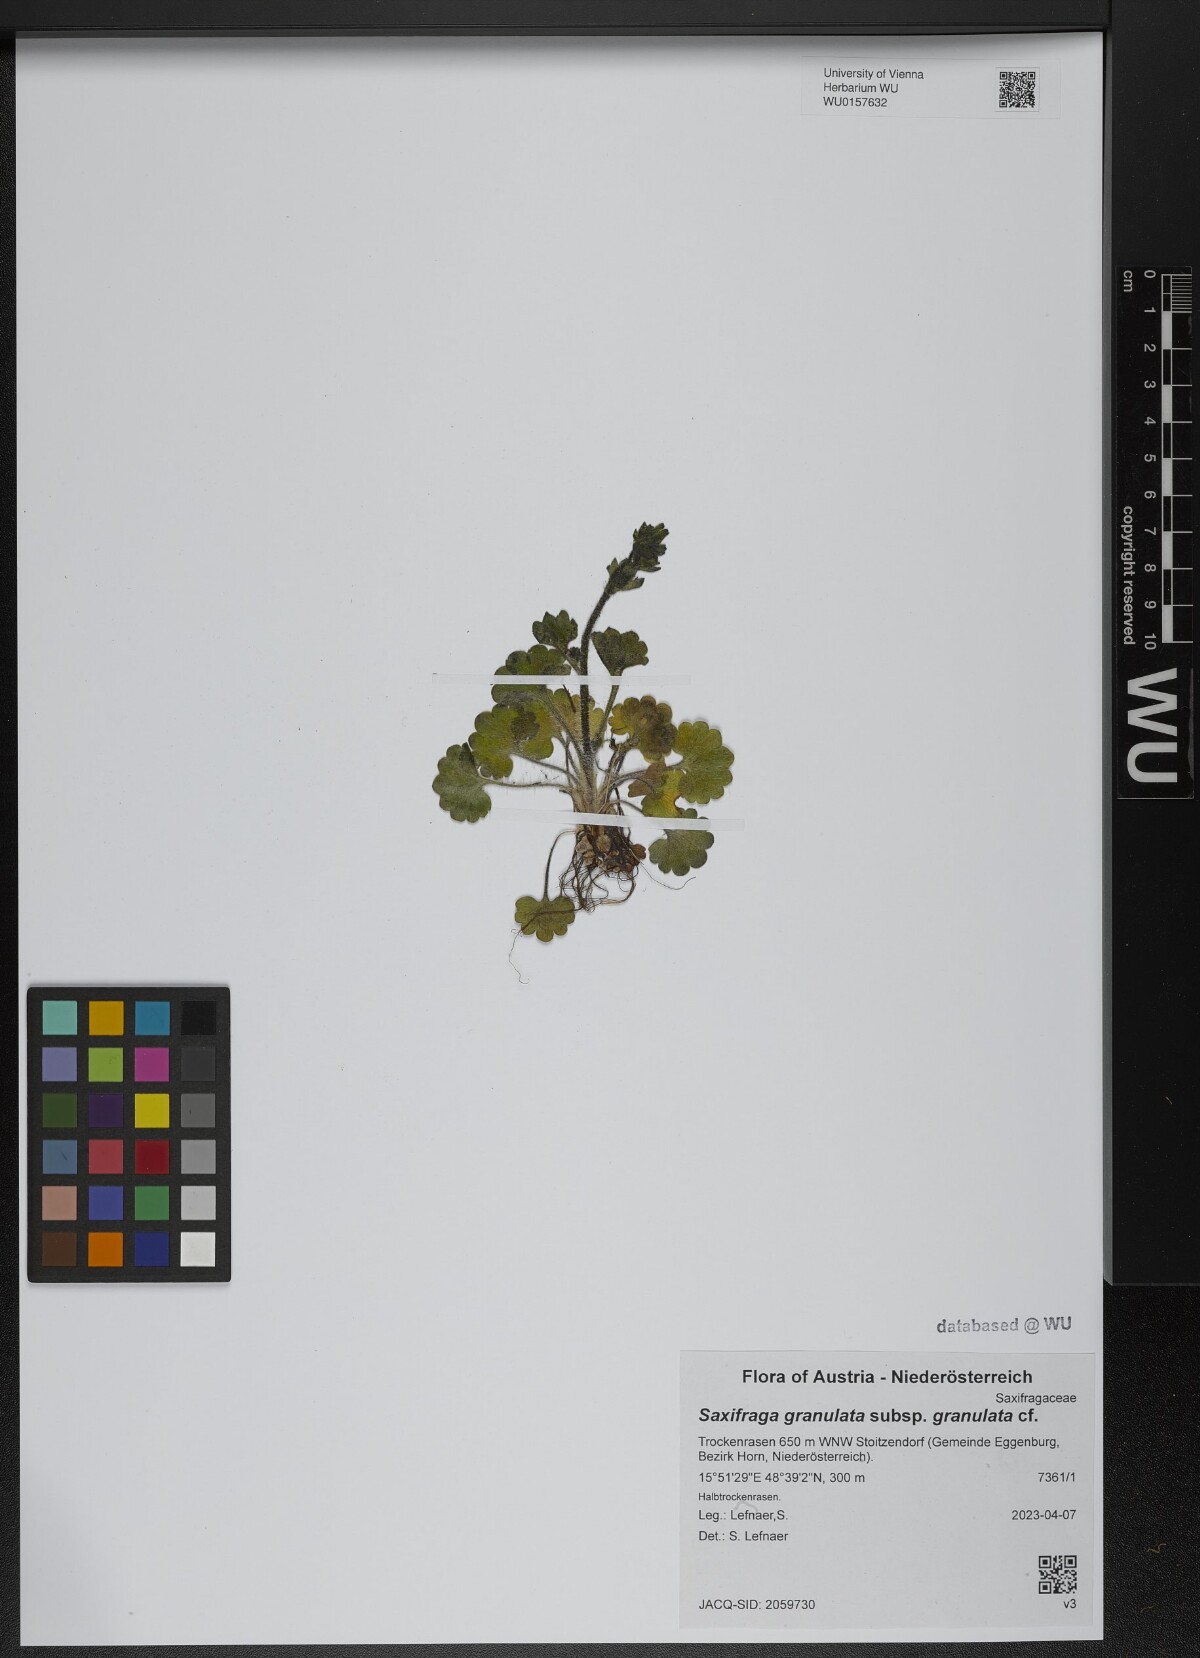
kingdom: Plantae
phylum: Tracheophyta
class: Magnoliopsida
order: Saxifragales
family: Saxifragaceae
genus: Saxifraga
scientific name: Saxifraga granulata
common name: Meadow saxifrage
